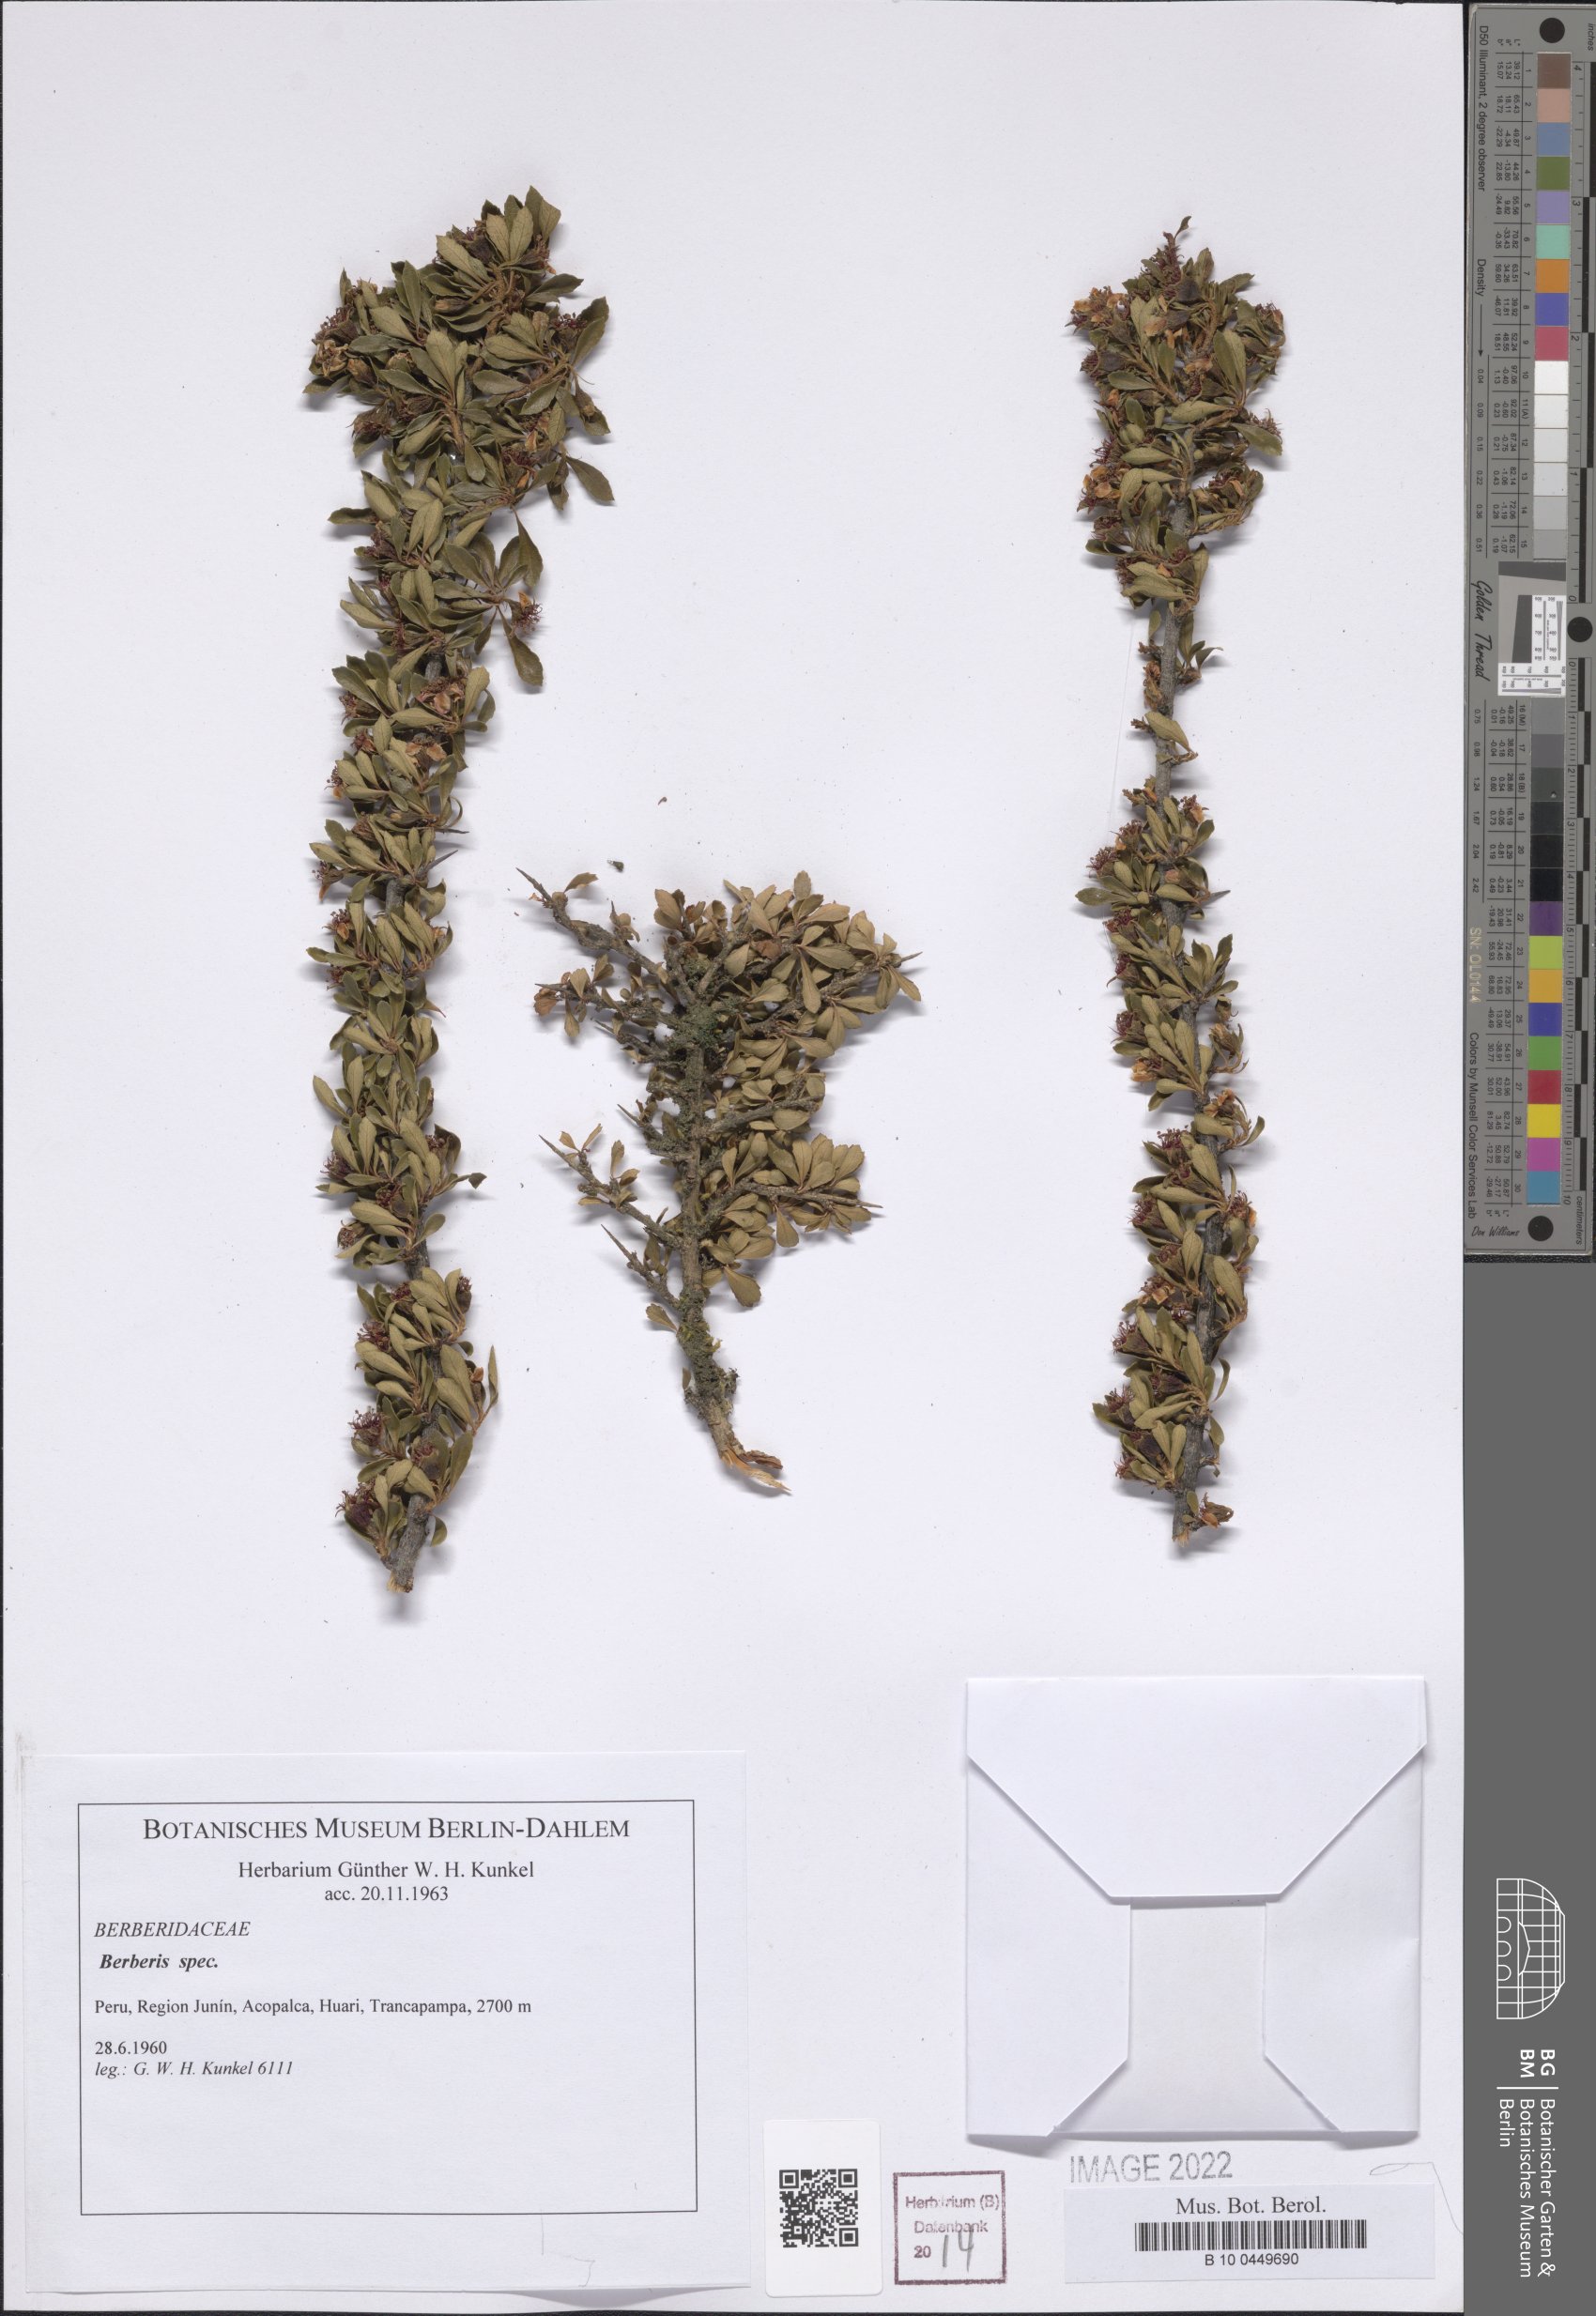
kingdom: Plantae
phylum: Tracheophyta
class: Magnoliopsida
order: Ranunculales
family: Berberidaceae
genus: Berberis
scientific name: Berberis
